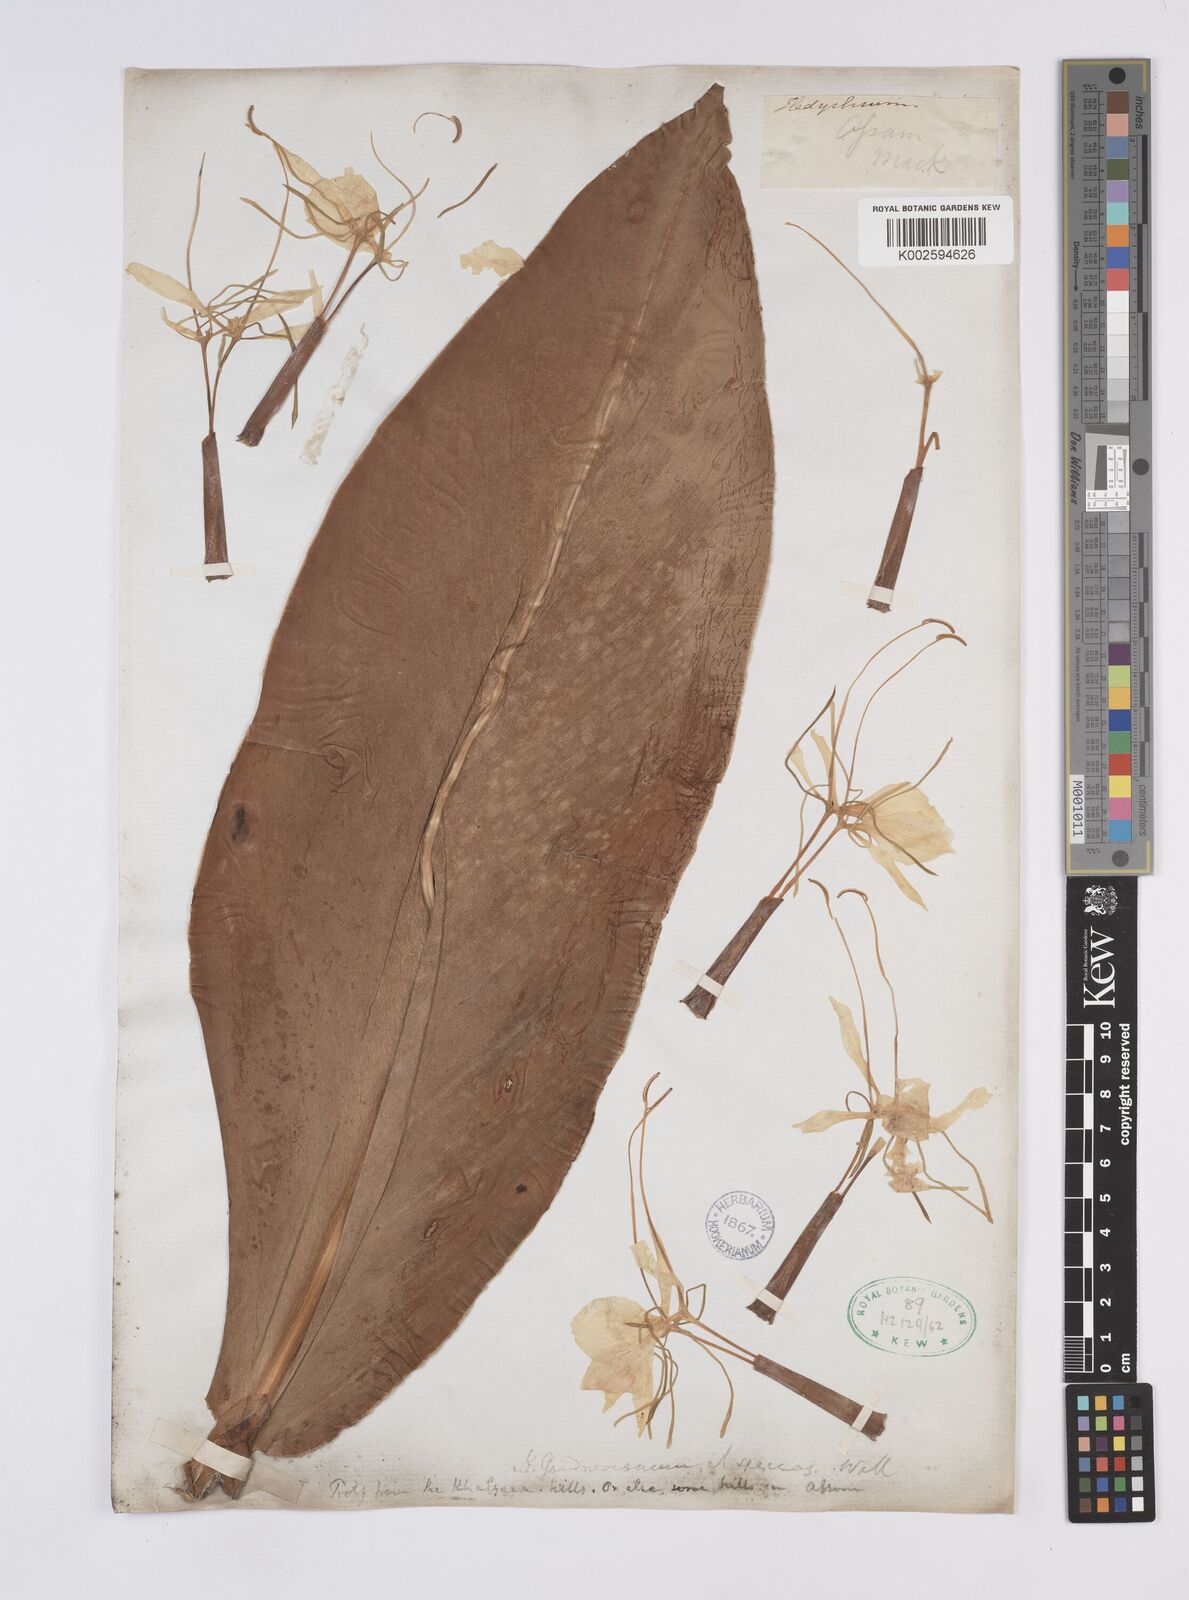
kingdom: Plantae
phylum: Tracheophyta
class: Liliopsida
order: Zingiberales
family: Zingiberaceae
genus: Hedychium
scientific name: Hedychium gardnerianum
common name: Himalayan ginger
